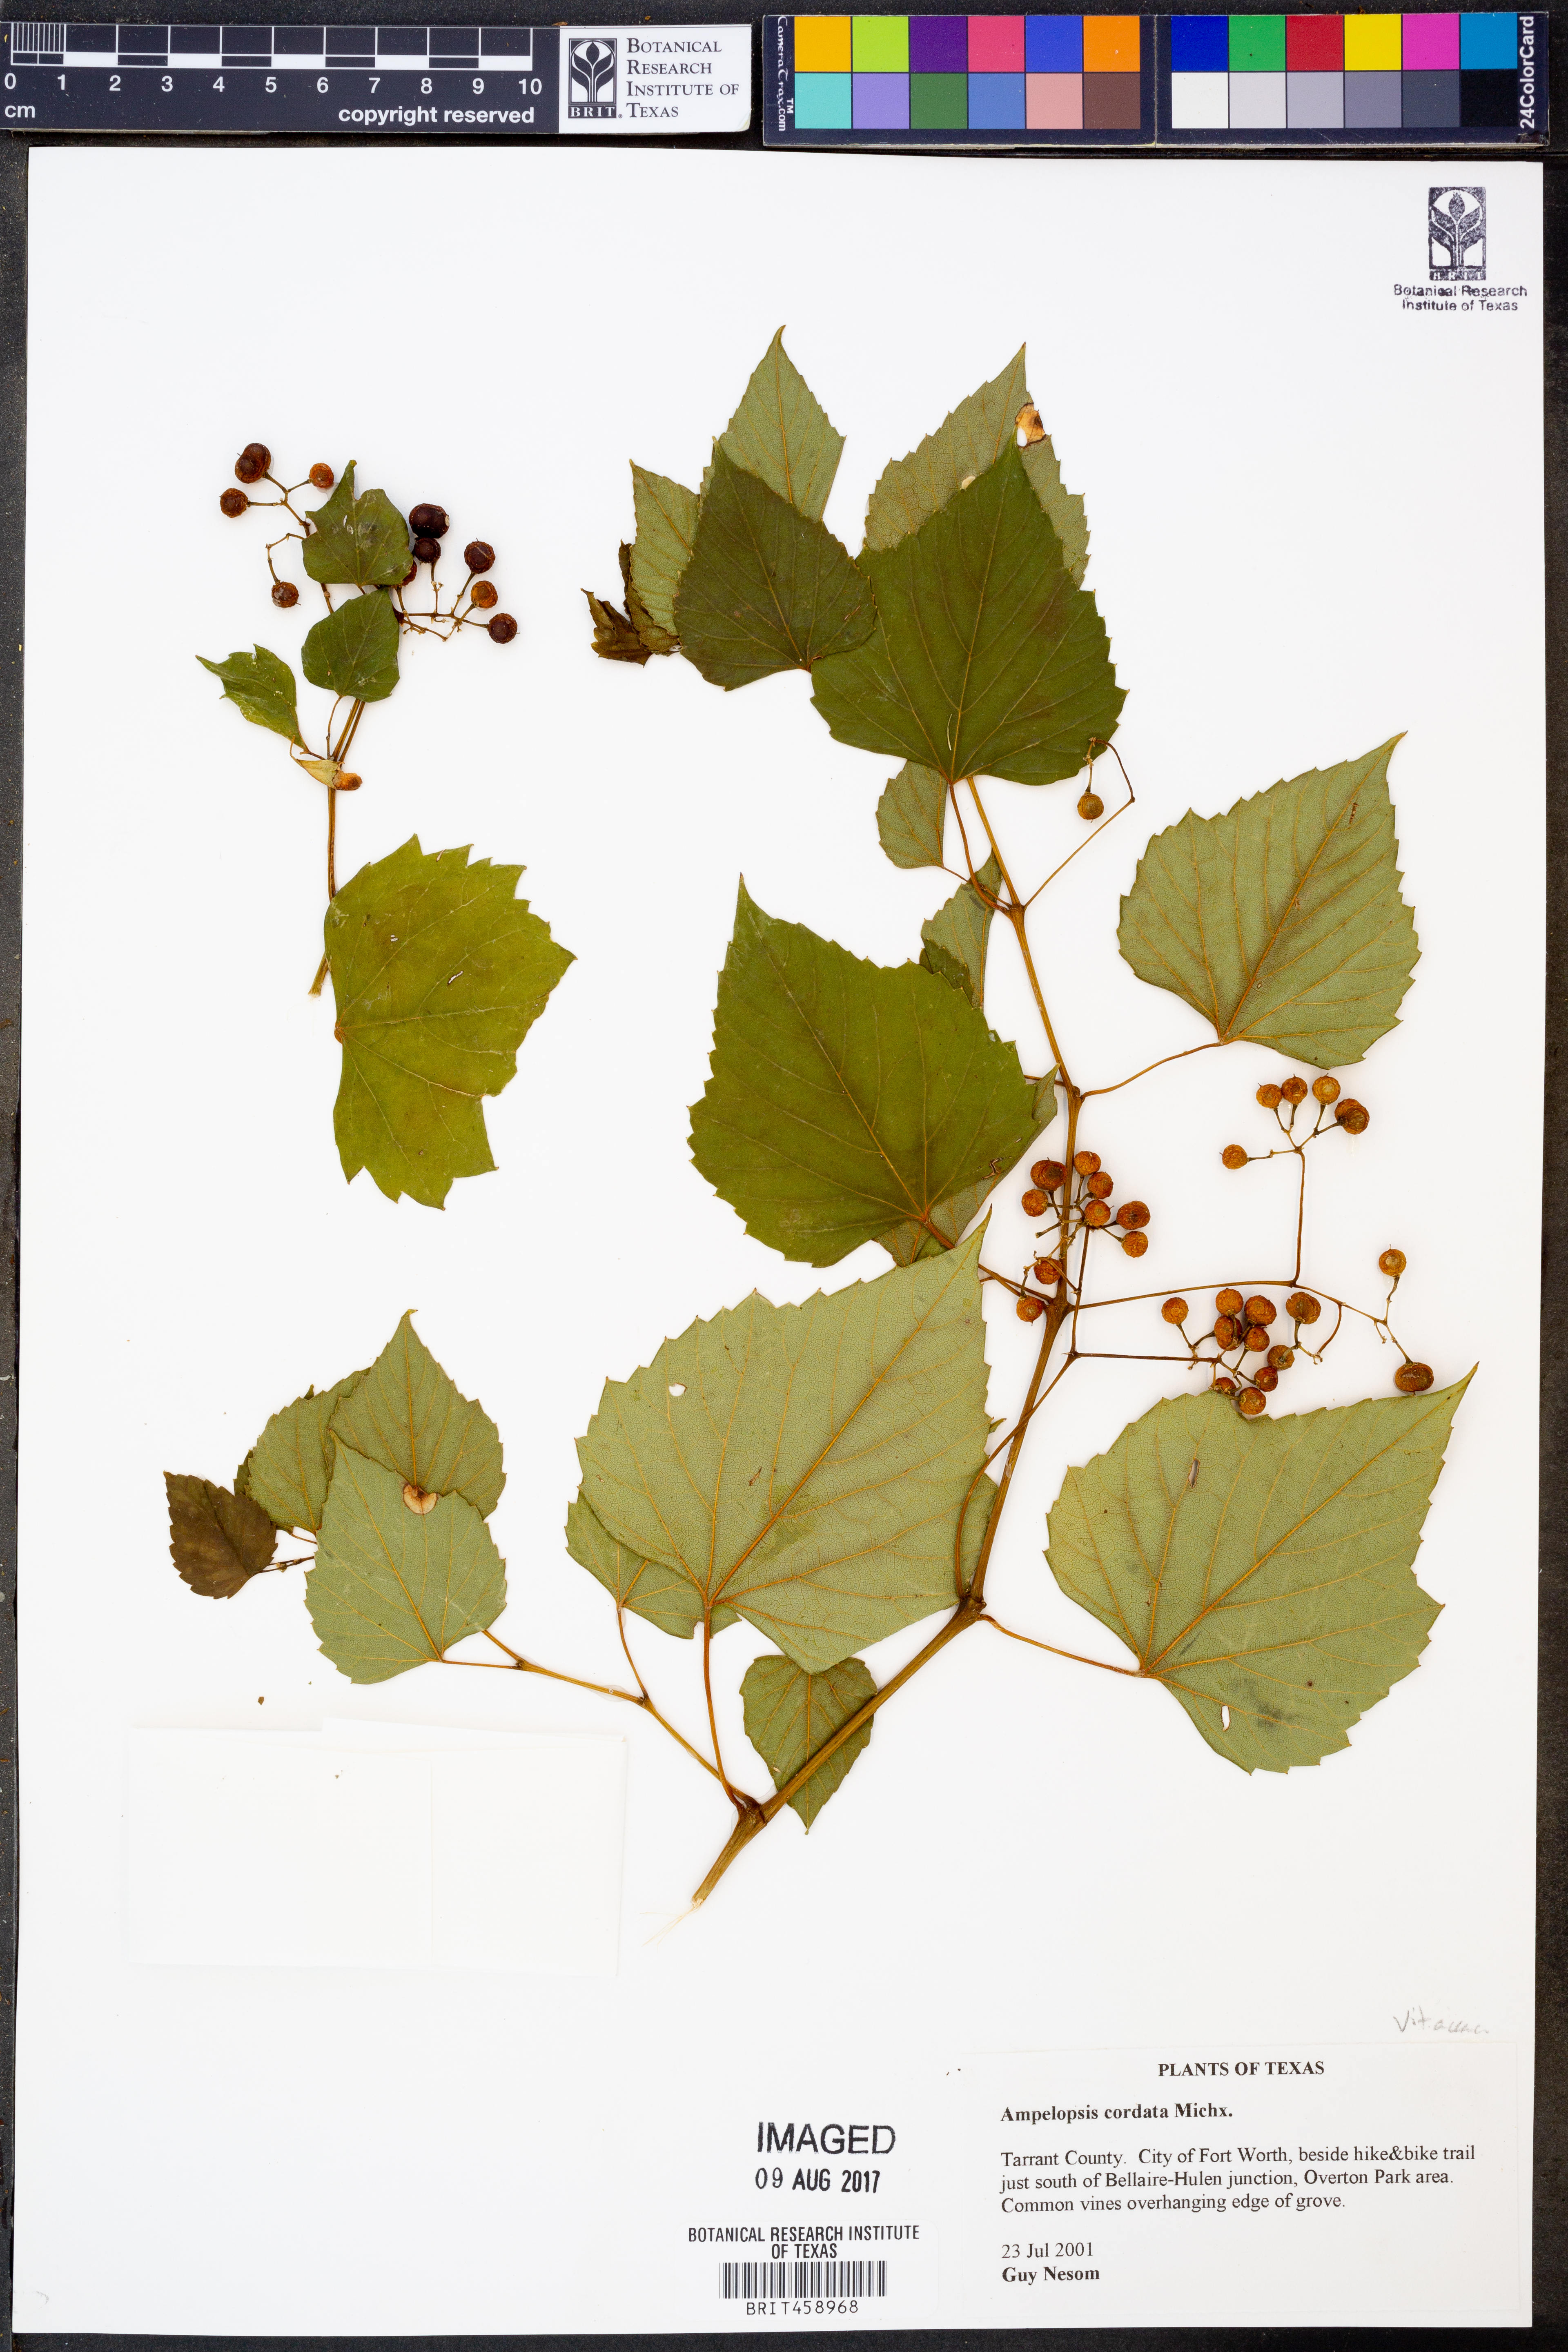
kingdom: Plantae
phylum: Tracheophyta
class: Magnoliopsida
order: Vitales
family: Vitaceae
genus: Ampelopsis
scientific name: Ampelopsis cordata
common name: Heart-leaf ampelopsis
